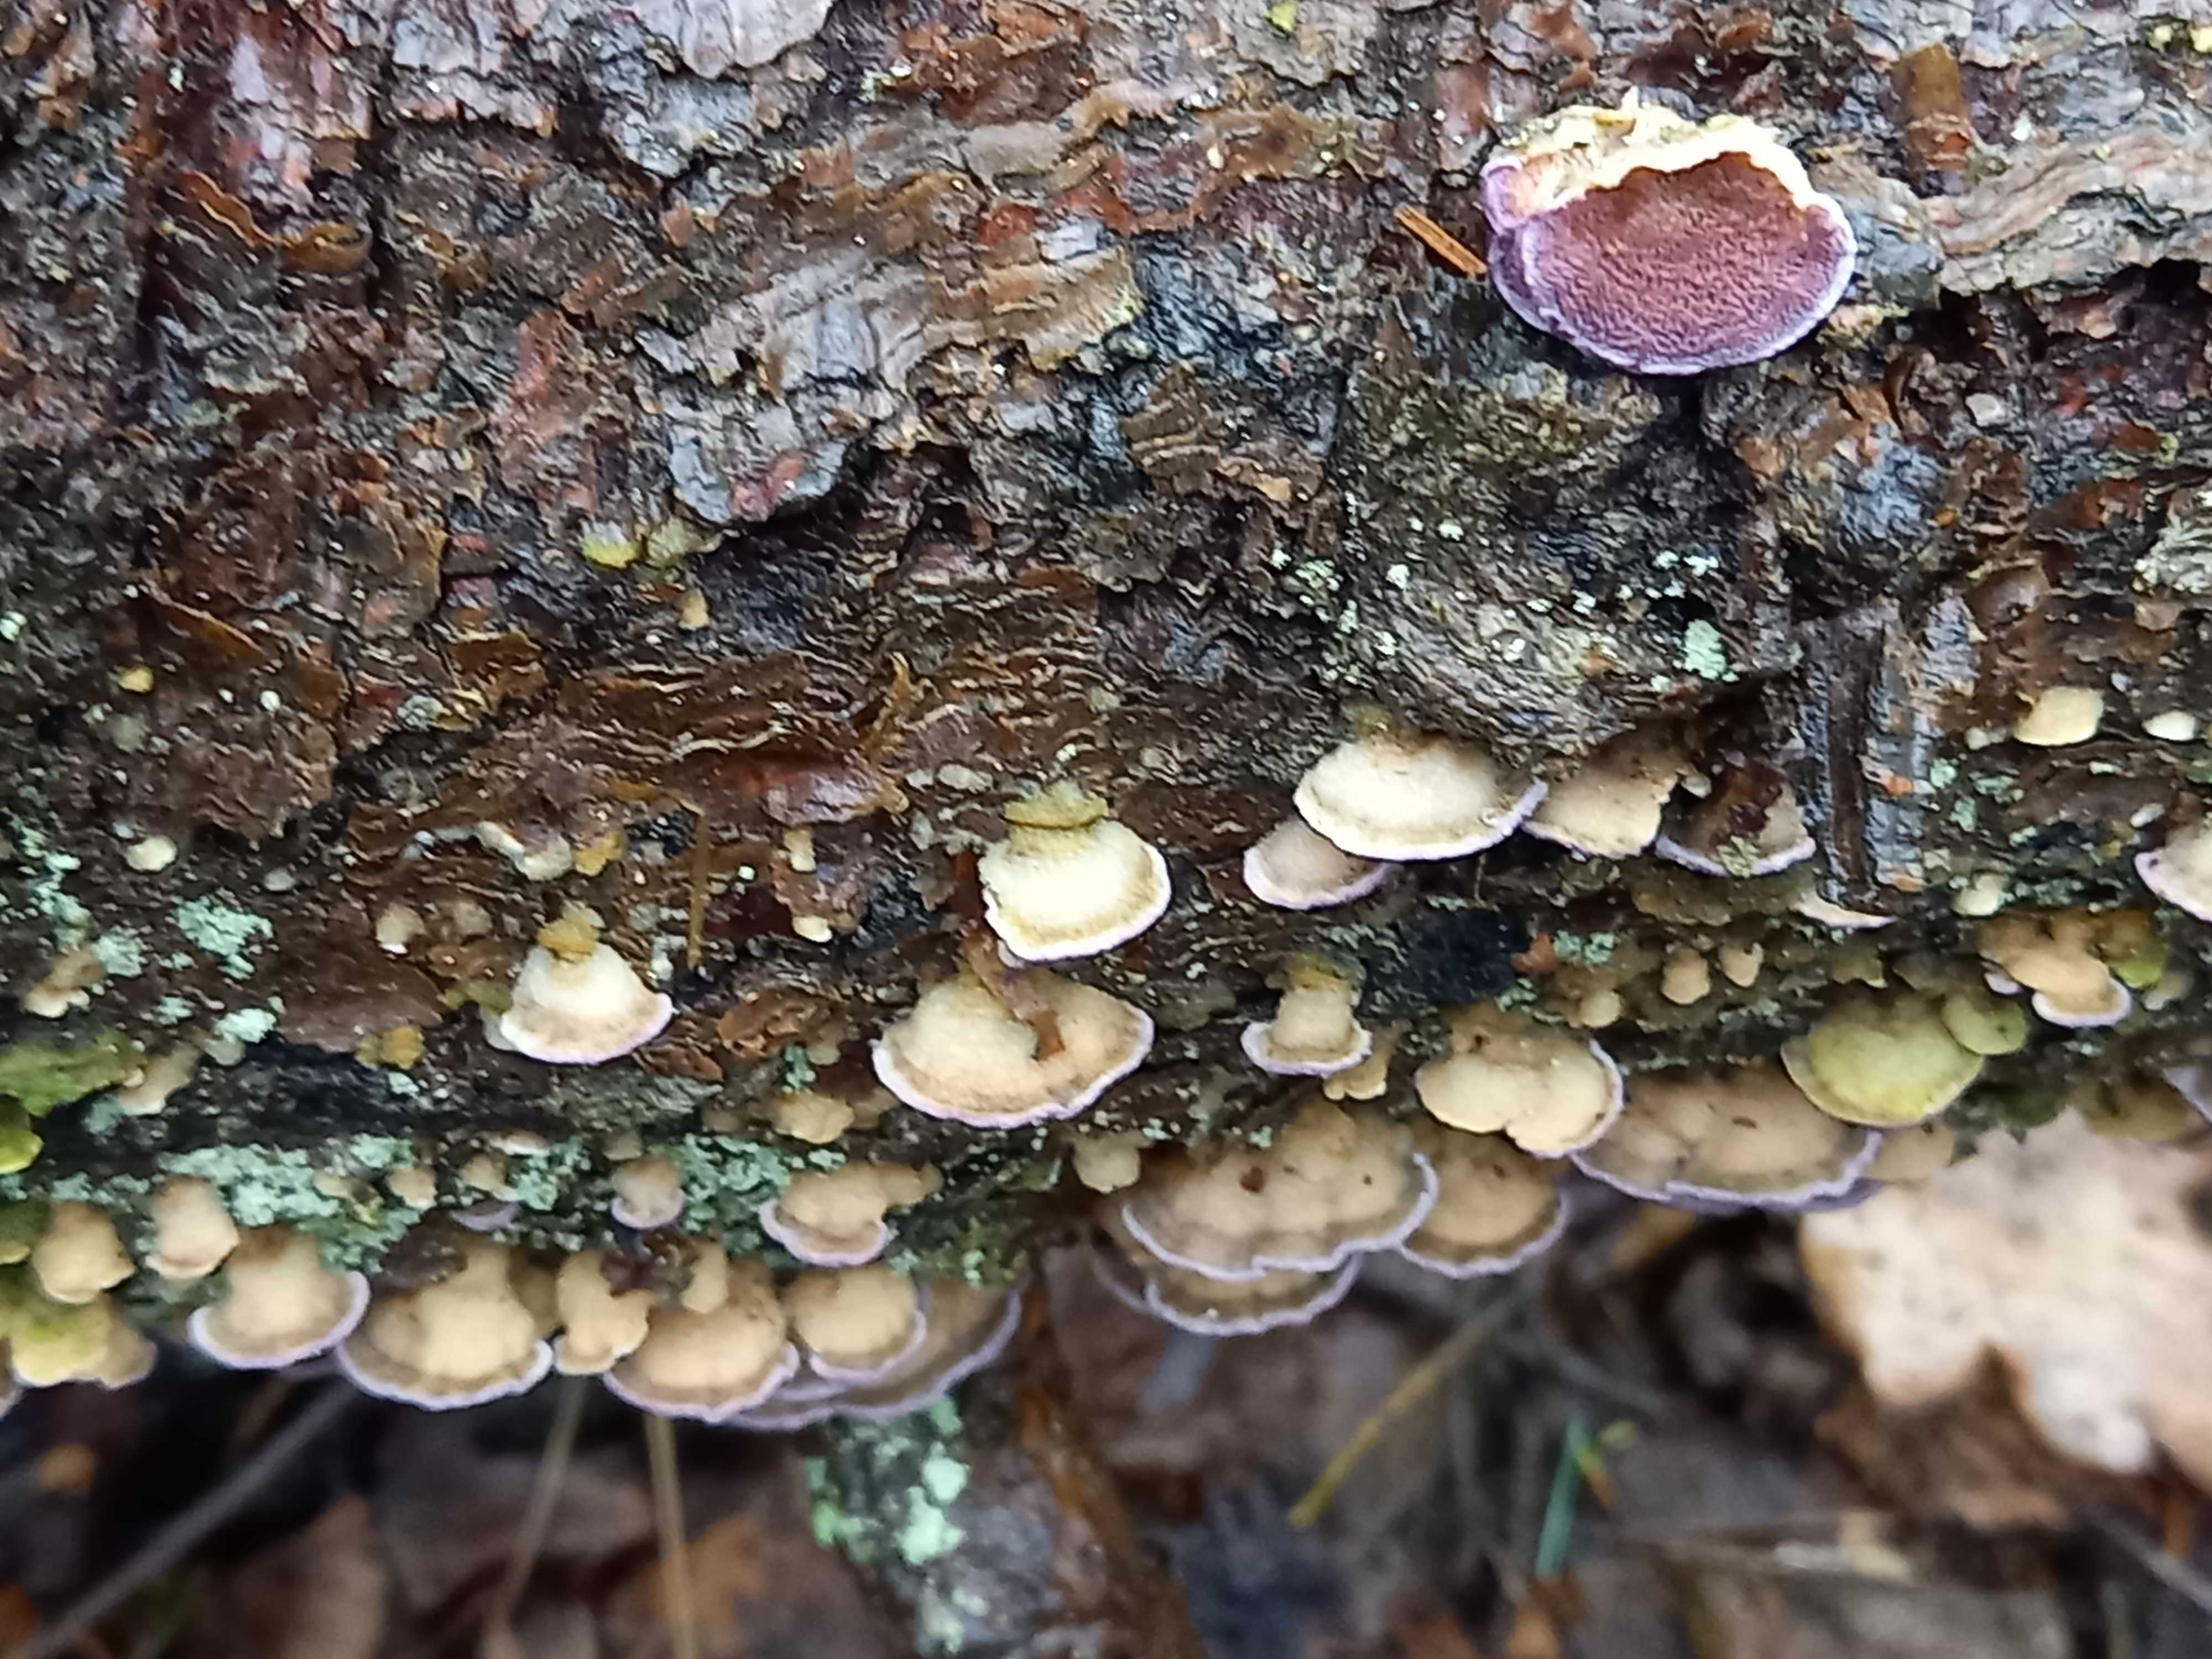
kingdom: Fungi
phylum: Basidiomycota
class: Agaricomycetes
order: Hymenochaetales
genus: Trichaptum
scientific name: Trichaptum fuscoviolaceum
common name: tandet violporesvamp
